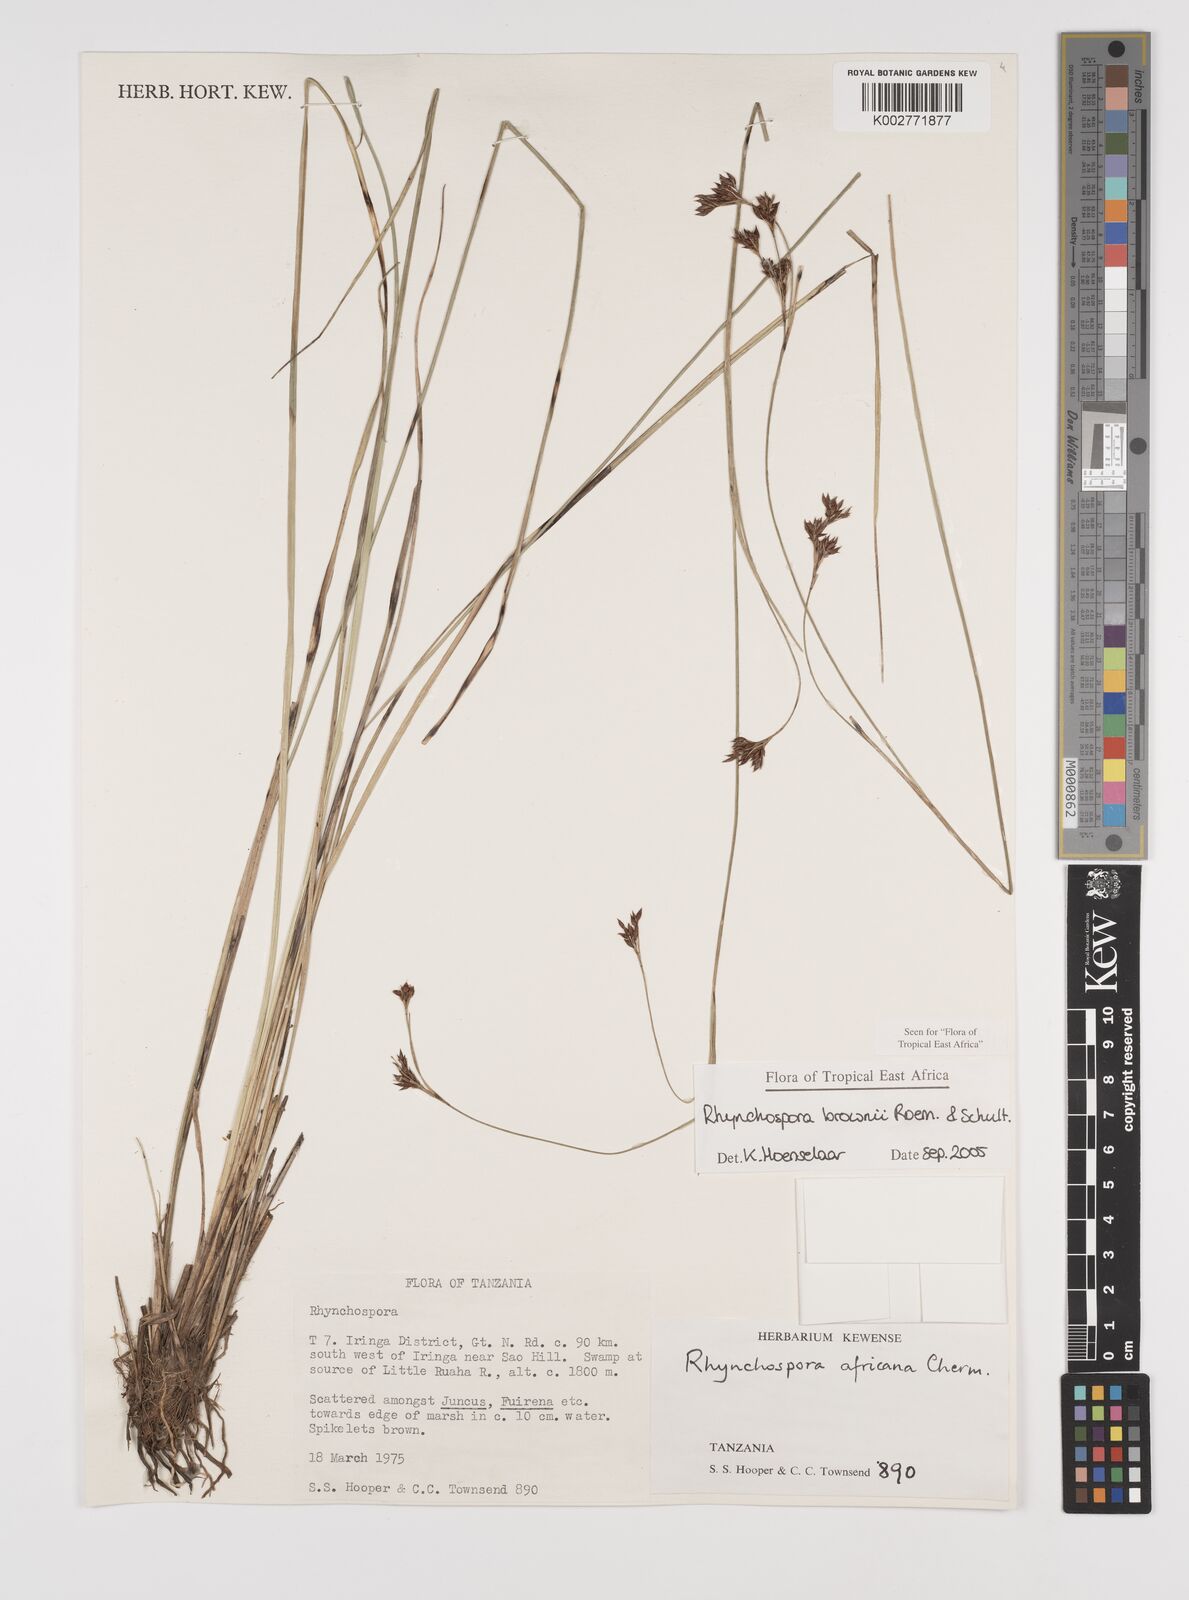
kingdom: Plantae
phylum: Tracheophyta
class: Liliopsida
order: Poales
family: Cyperaceae
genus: Rhynchospora
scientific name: Rhynchospora brownii
